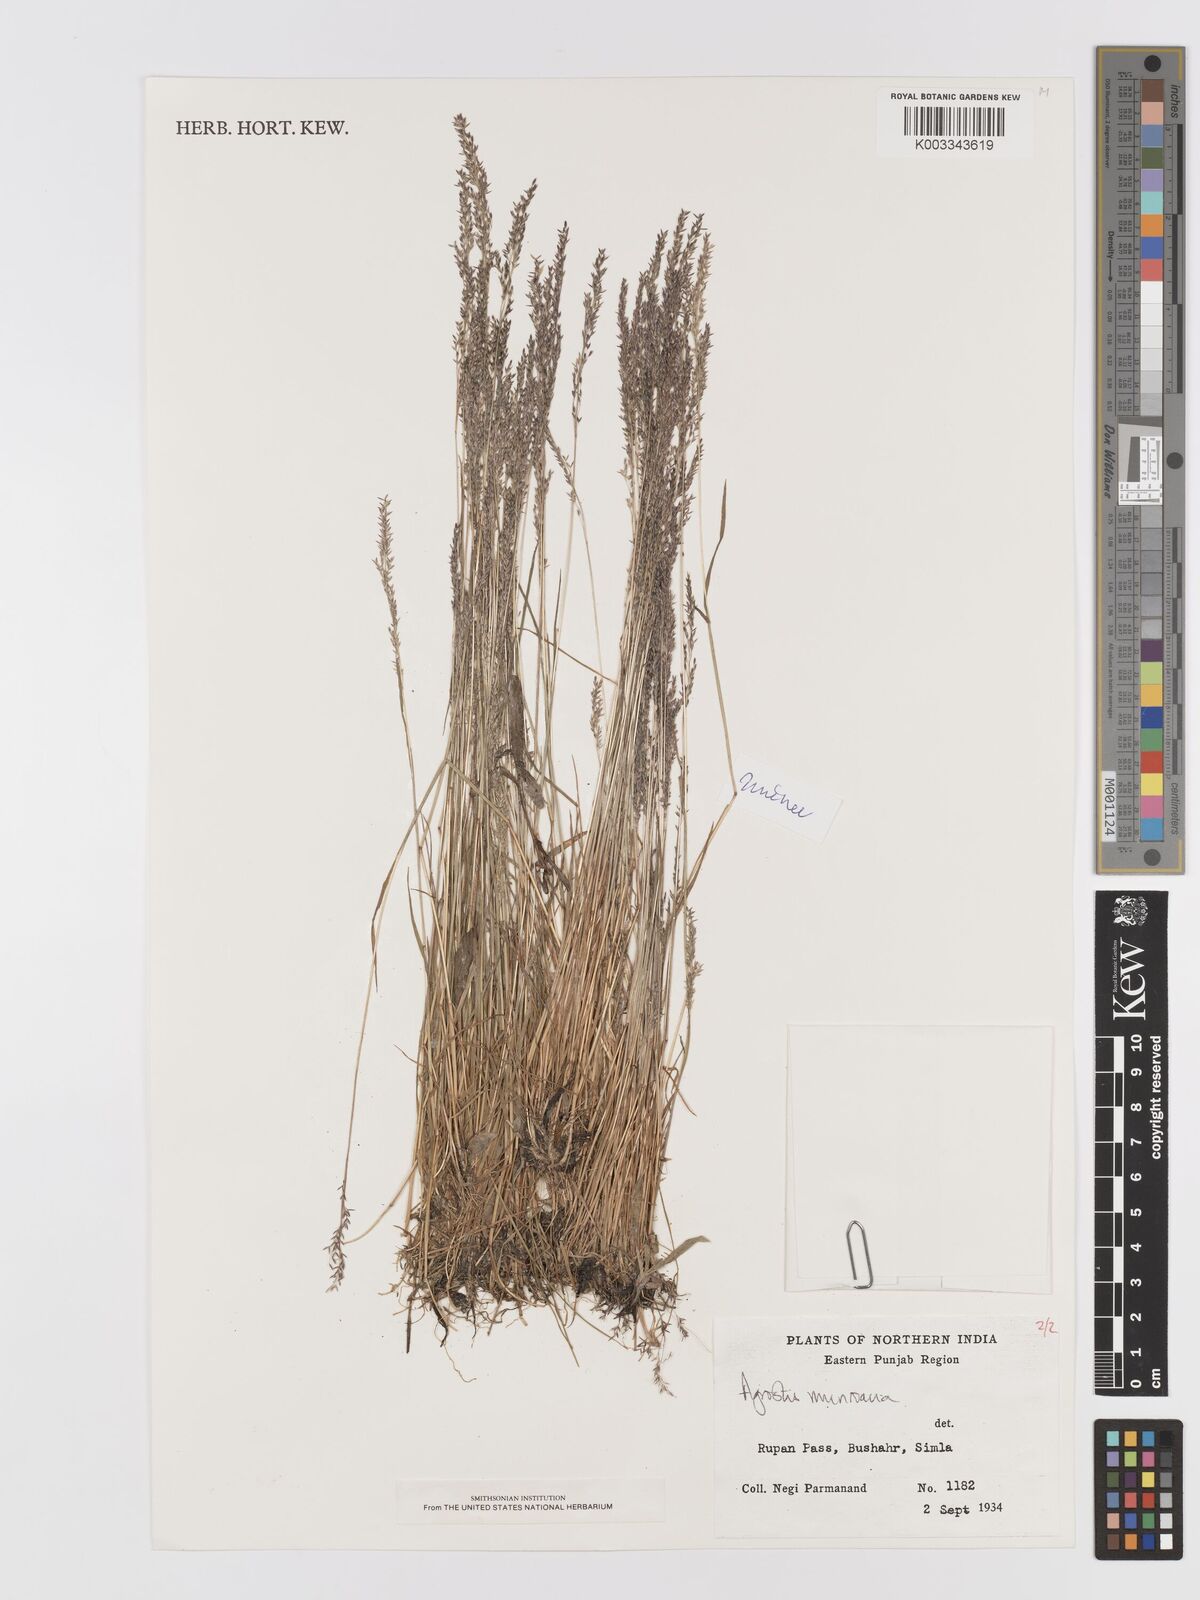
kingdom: Plantae
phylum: Tracheophyta
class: Liliopsida
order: Poales
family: Poaceae
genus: Agrostis
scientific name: Agrostis munroana
